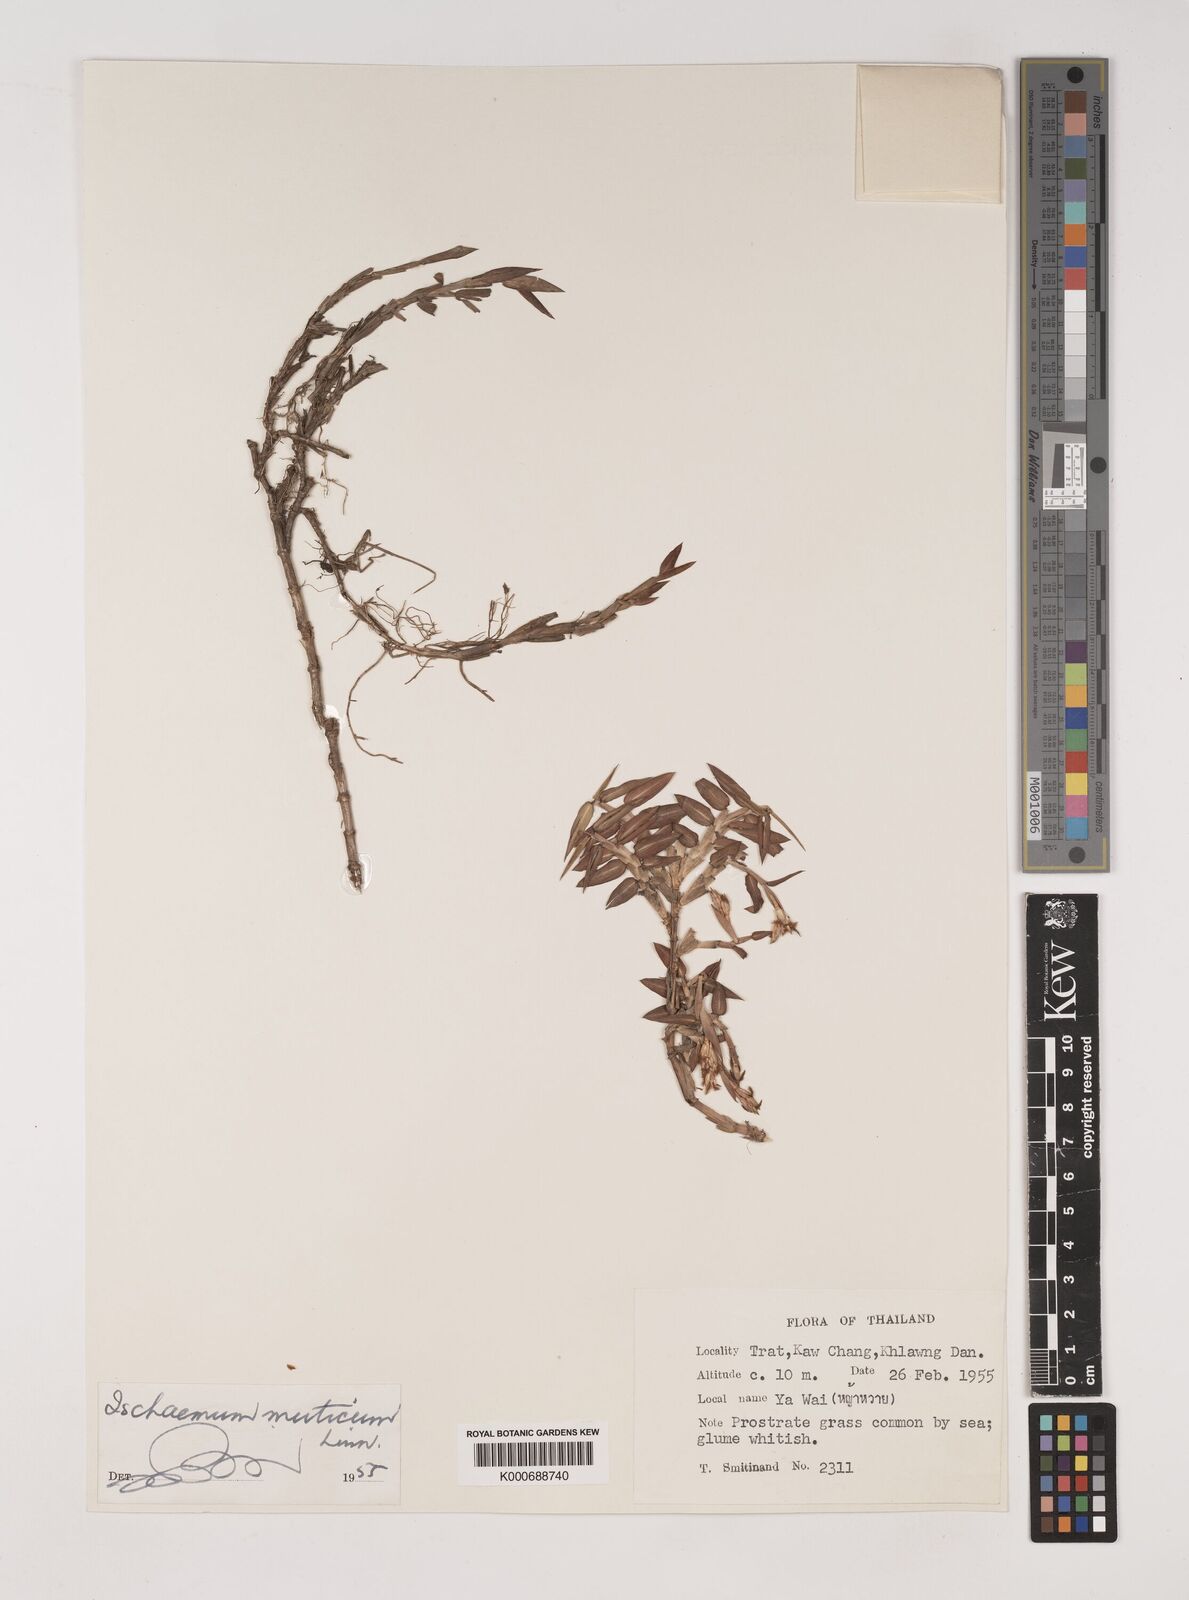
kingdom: Plantae
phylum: Tracheophyta
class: Liliopsida
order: Poales
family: Poaceae
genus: Ischaemum
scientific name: Ischaemum muticum
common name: Drought grass
